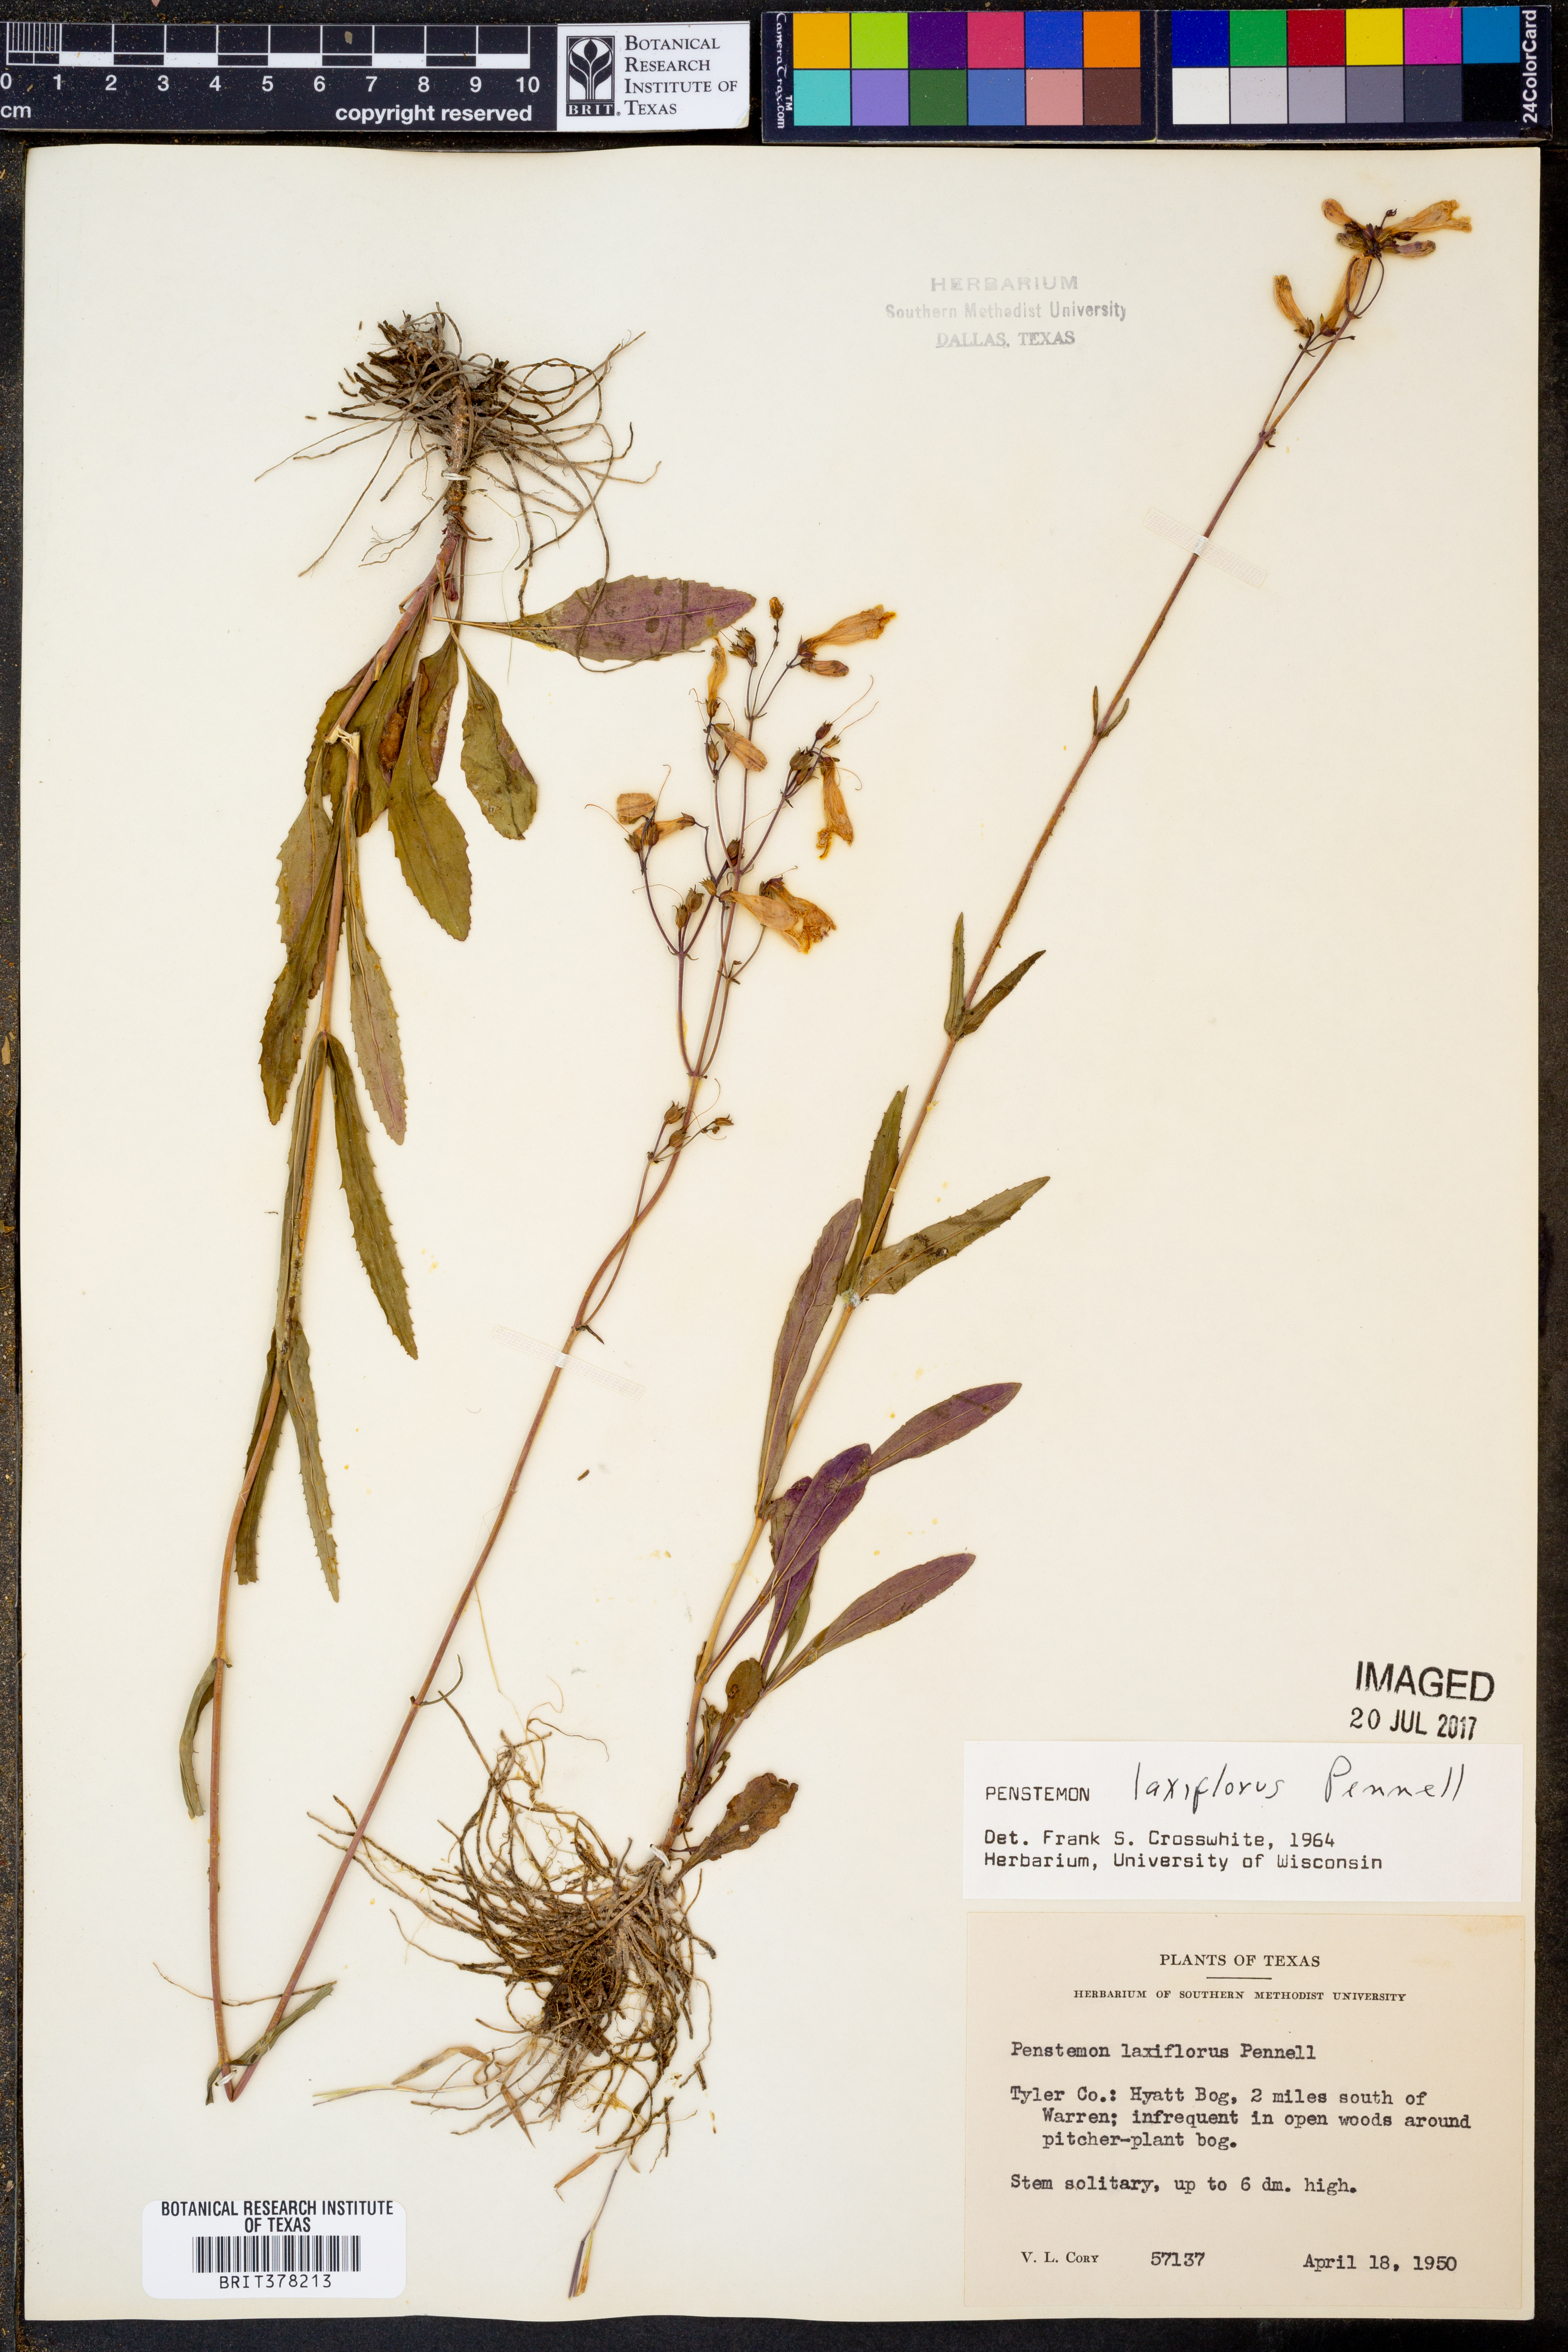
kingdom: Plantae
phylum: Tracheophyta
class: Magnoliopsida
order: Lamiales
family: Plantaginaceae
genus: Penstemon
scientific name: Penstemon laxiflorus
